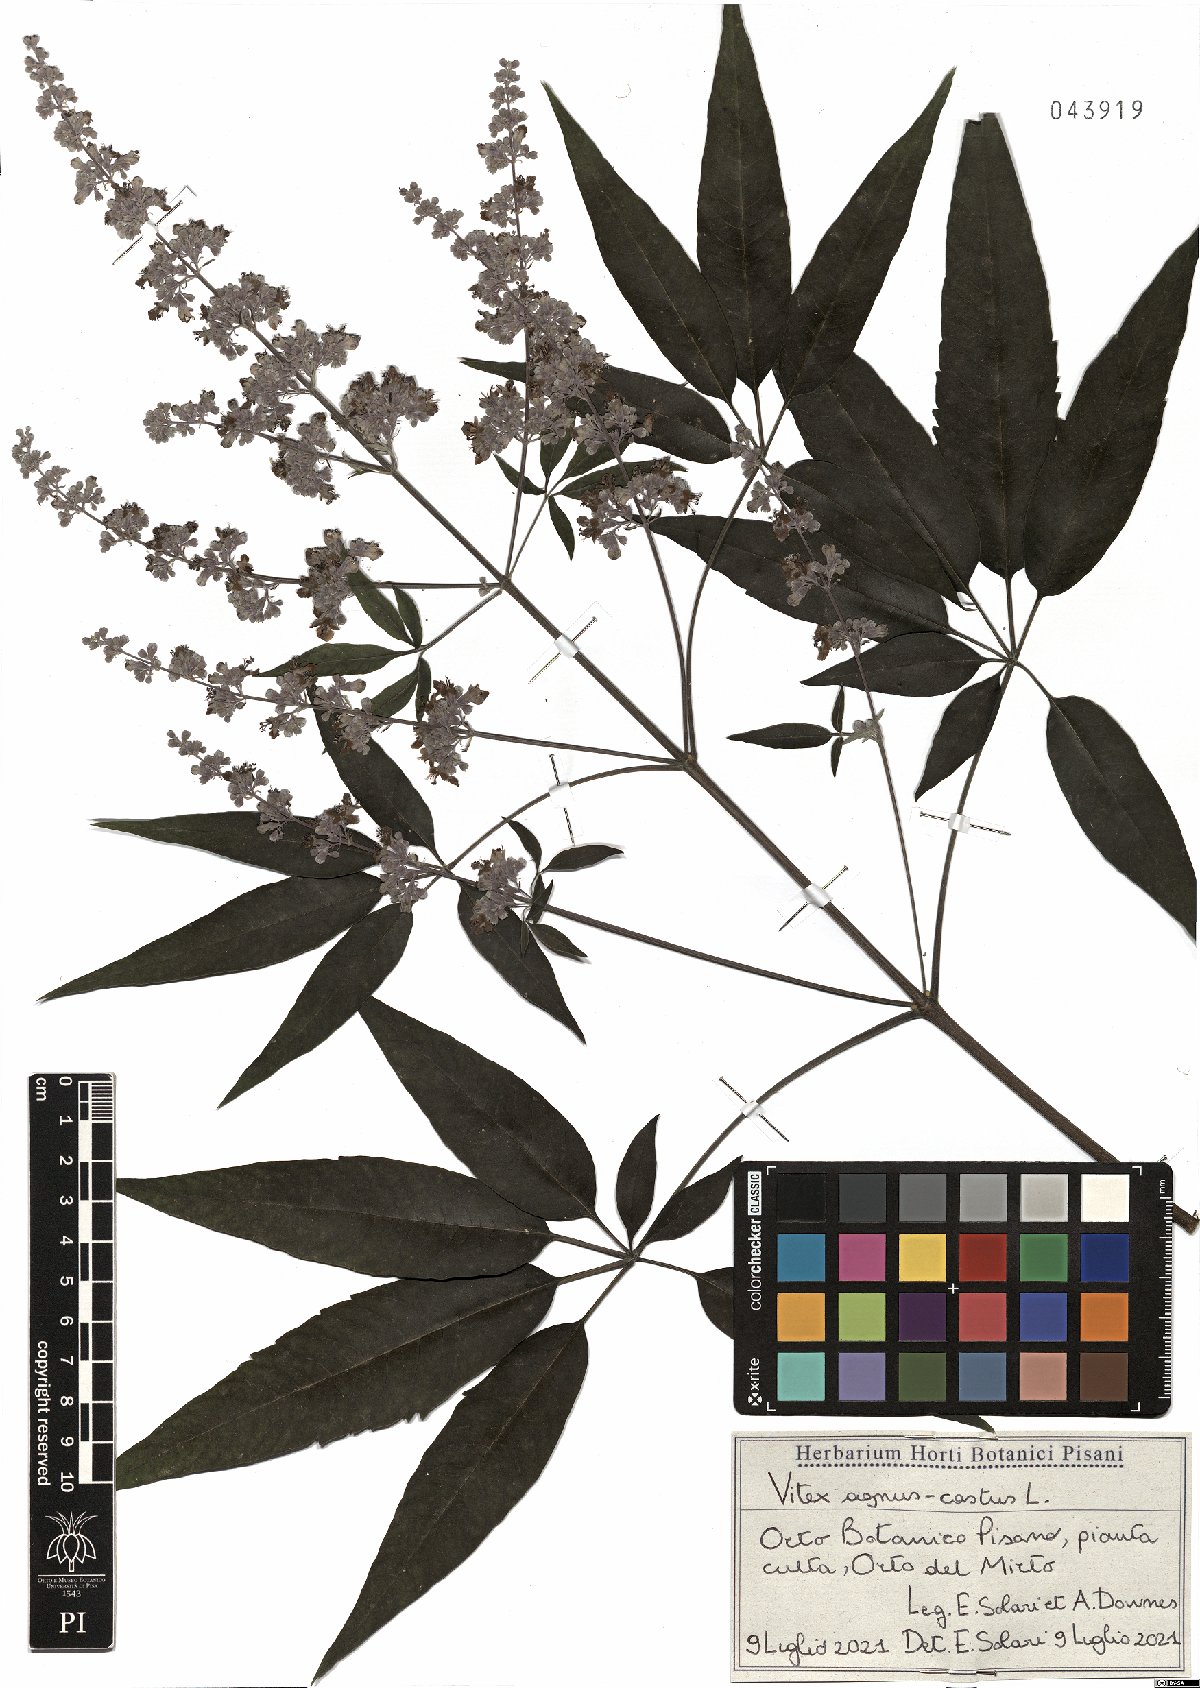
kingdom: Plantae
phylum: Tracheophyta
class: Magnoliopsida
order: Lamiales
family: Lamiaceae
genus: Vitex
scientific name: Vitex agnus-castus
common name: Chasteberry
